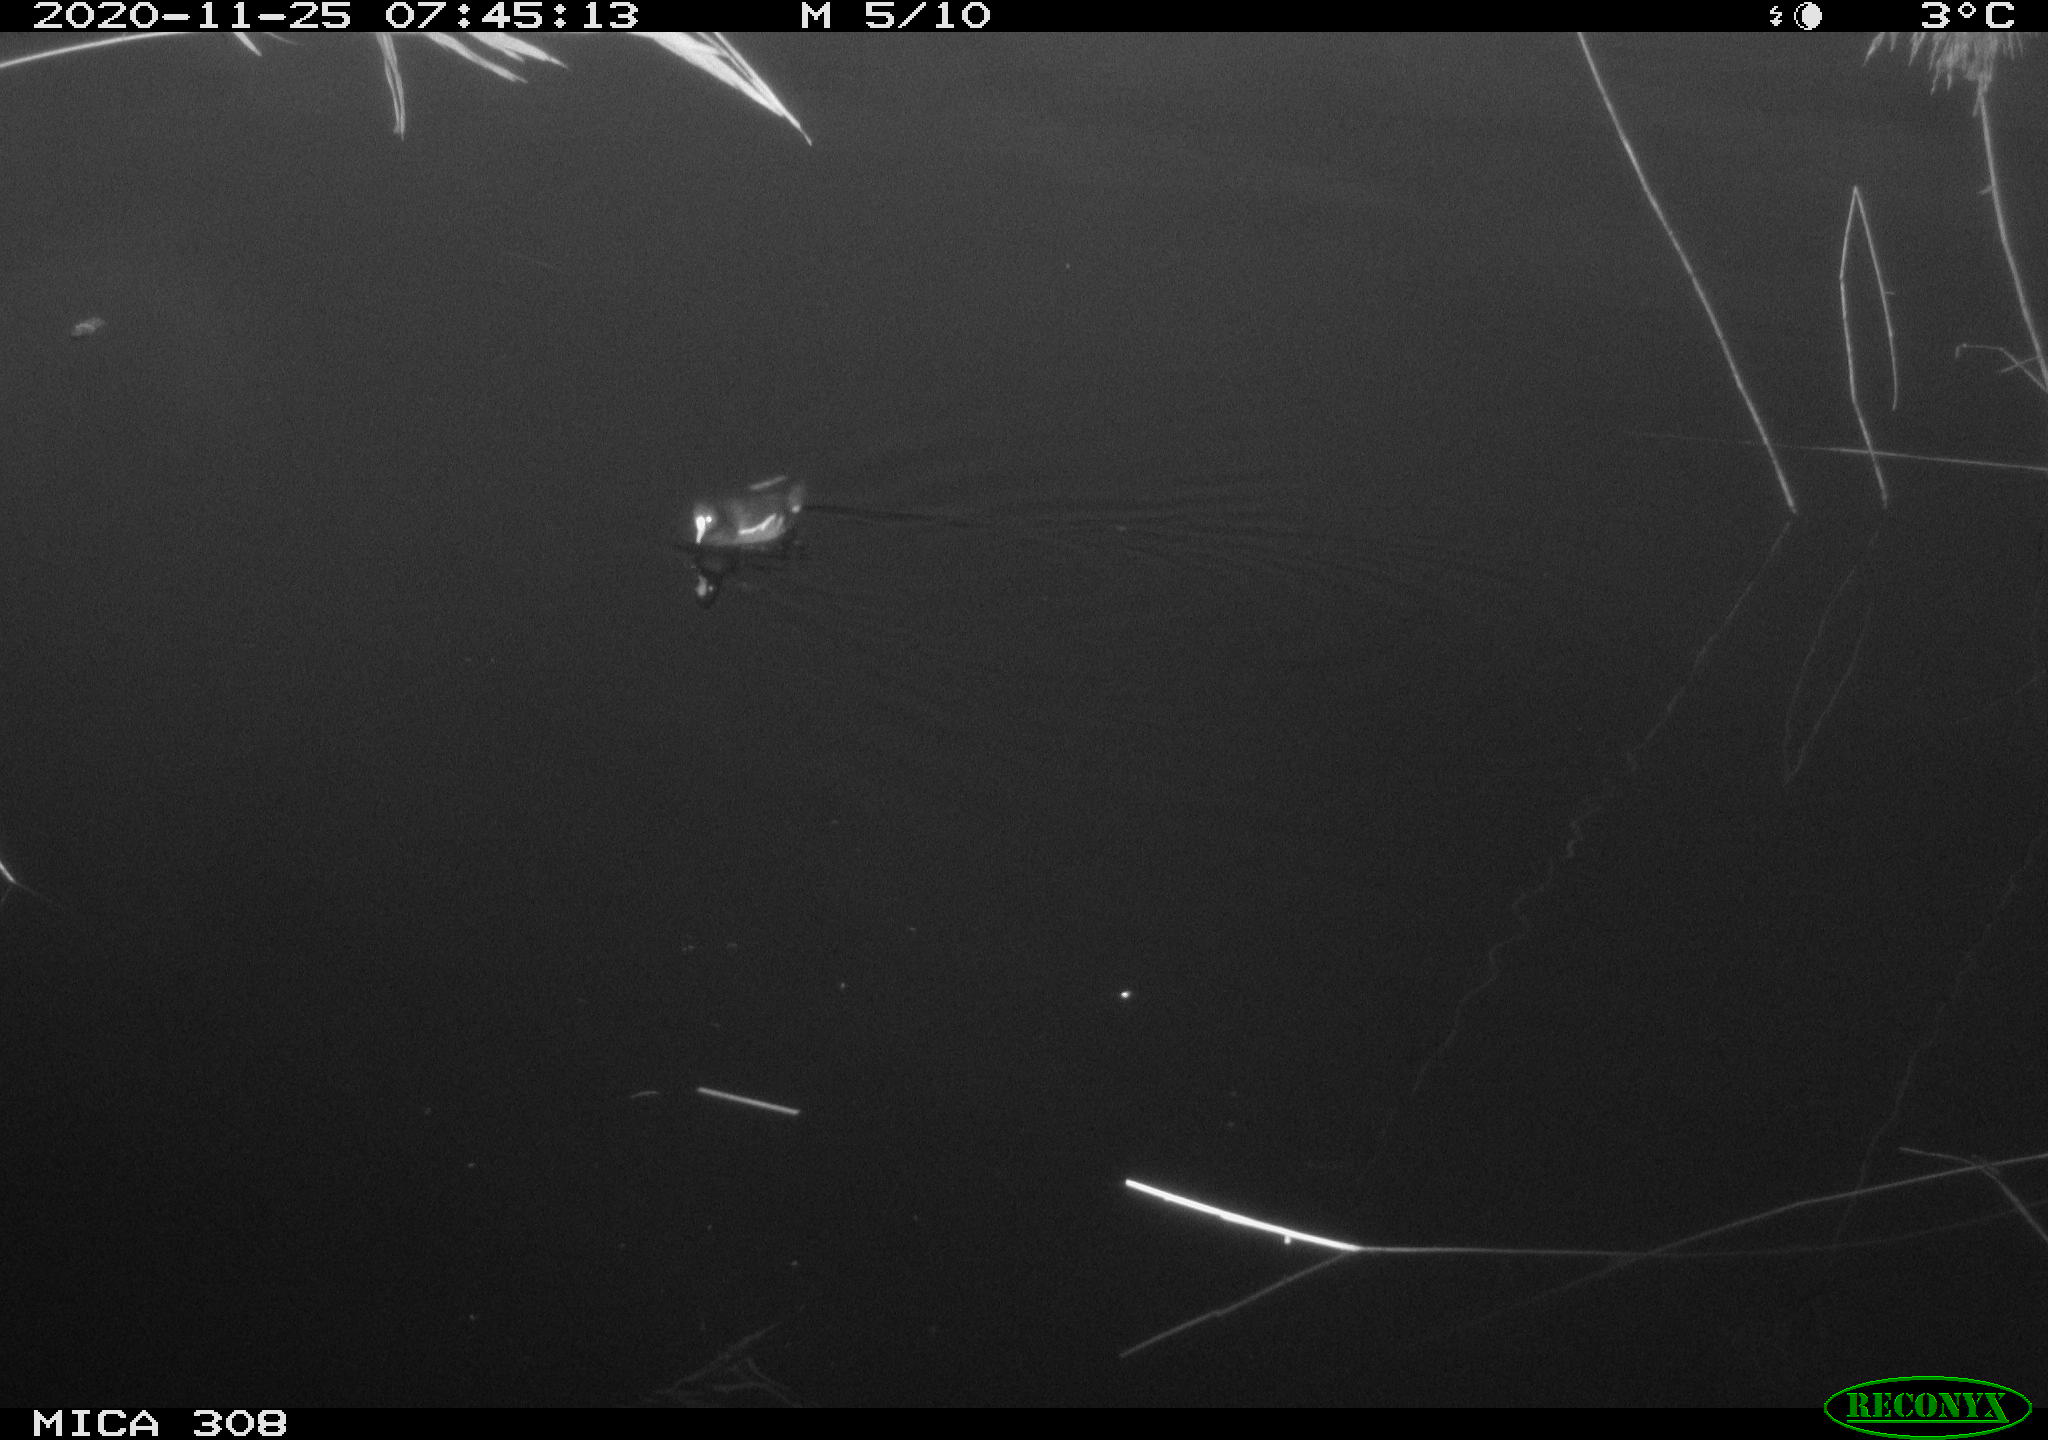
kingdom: Animalia
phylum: Chordata
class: Aves
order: Gruiformes
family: Rallidae
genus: Gallinula
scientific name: Gallinula chloropus
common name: Common moorhen
